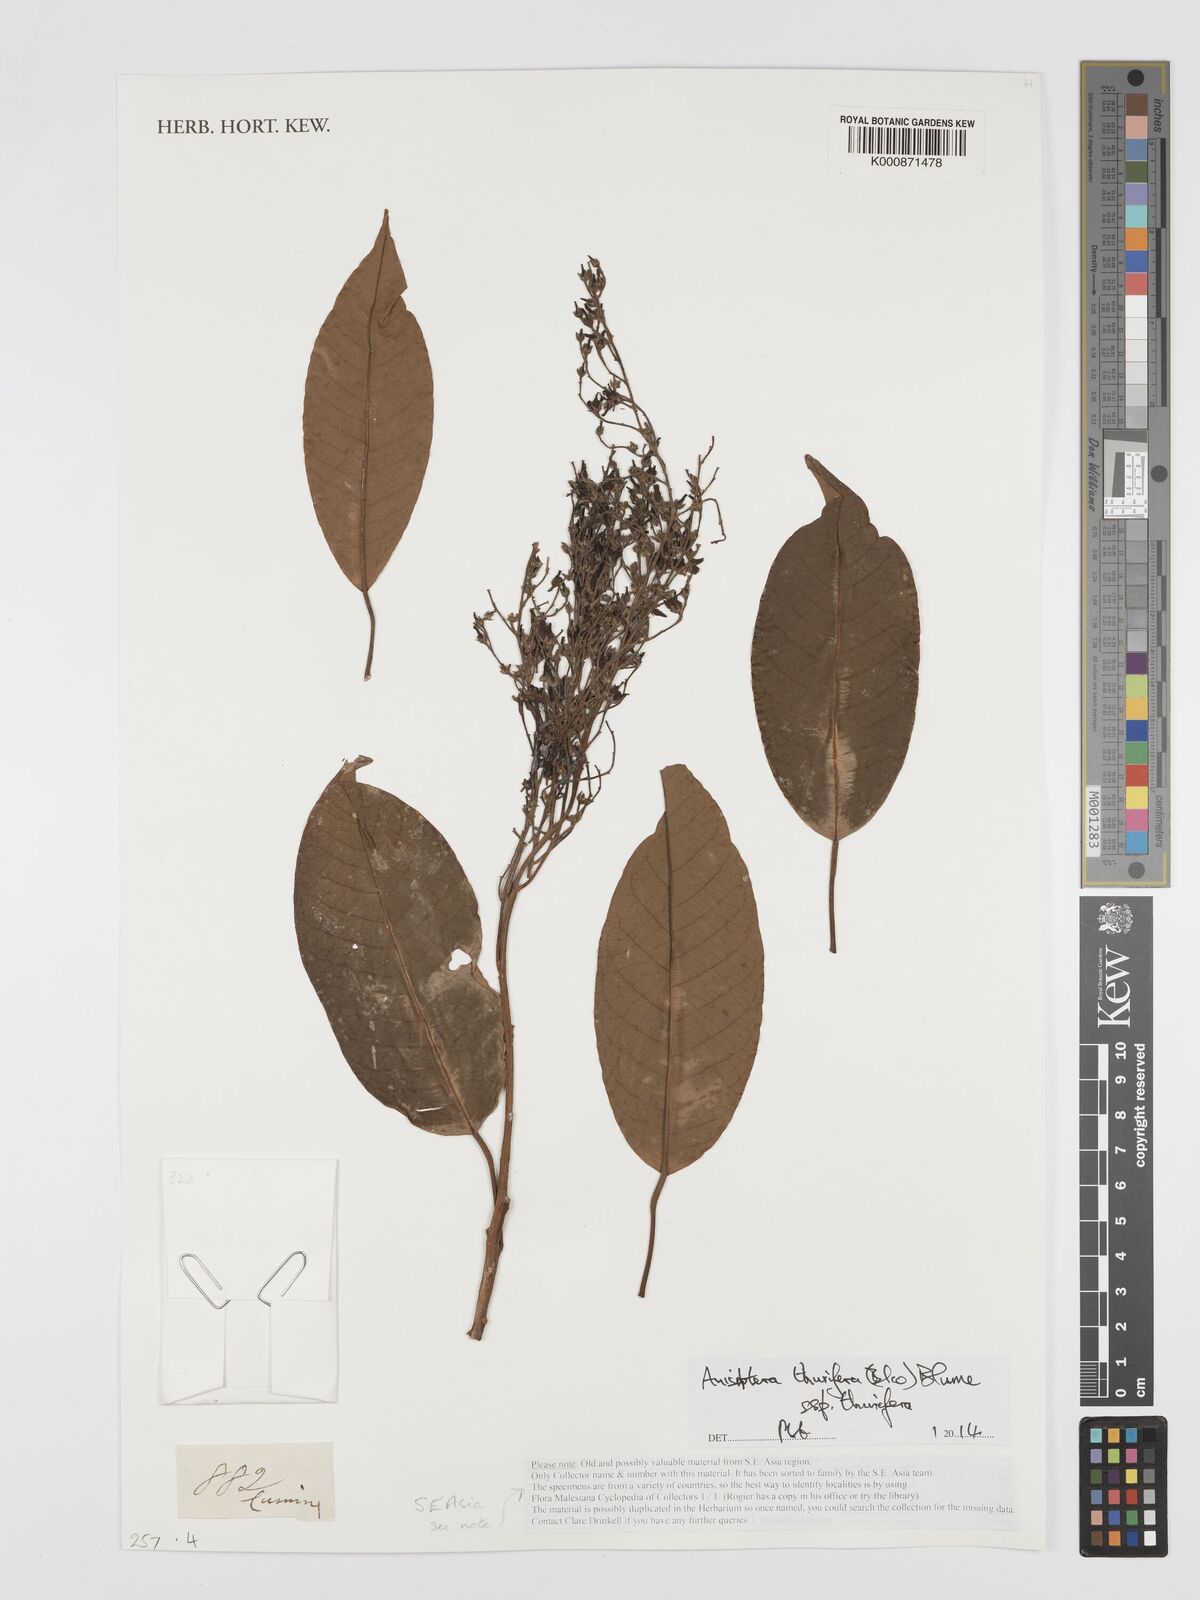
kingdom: Plantae
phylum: Tracheophyta
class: Magnoliopsida
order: Malvales
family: Dipterocarpaceae
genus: Anisoptera
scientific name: Anisoptera thurifera
